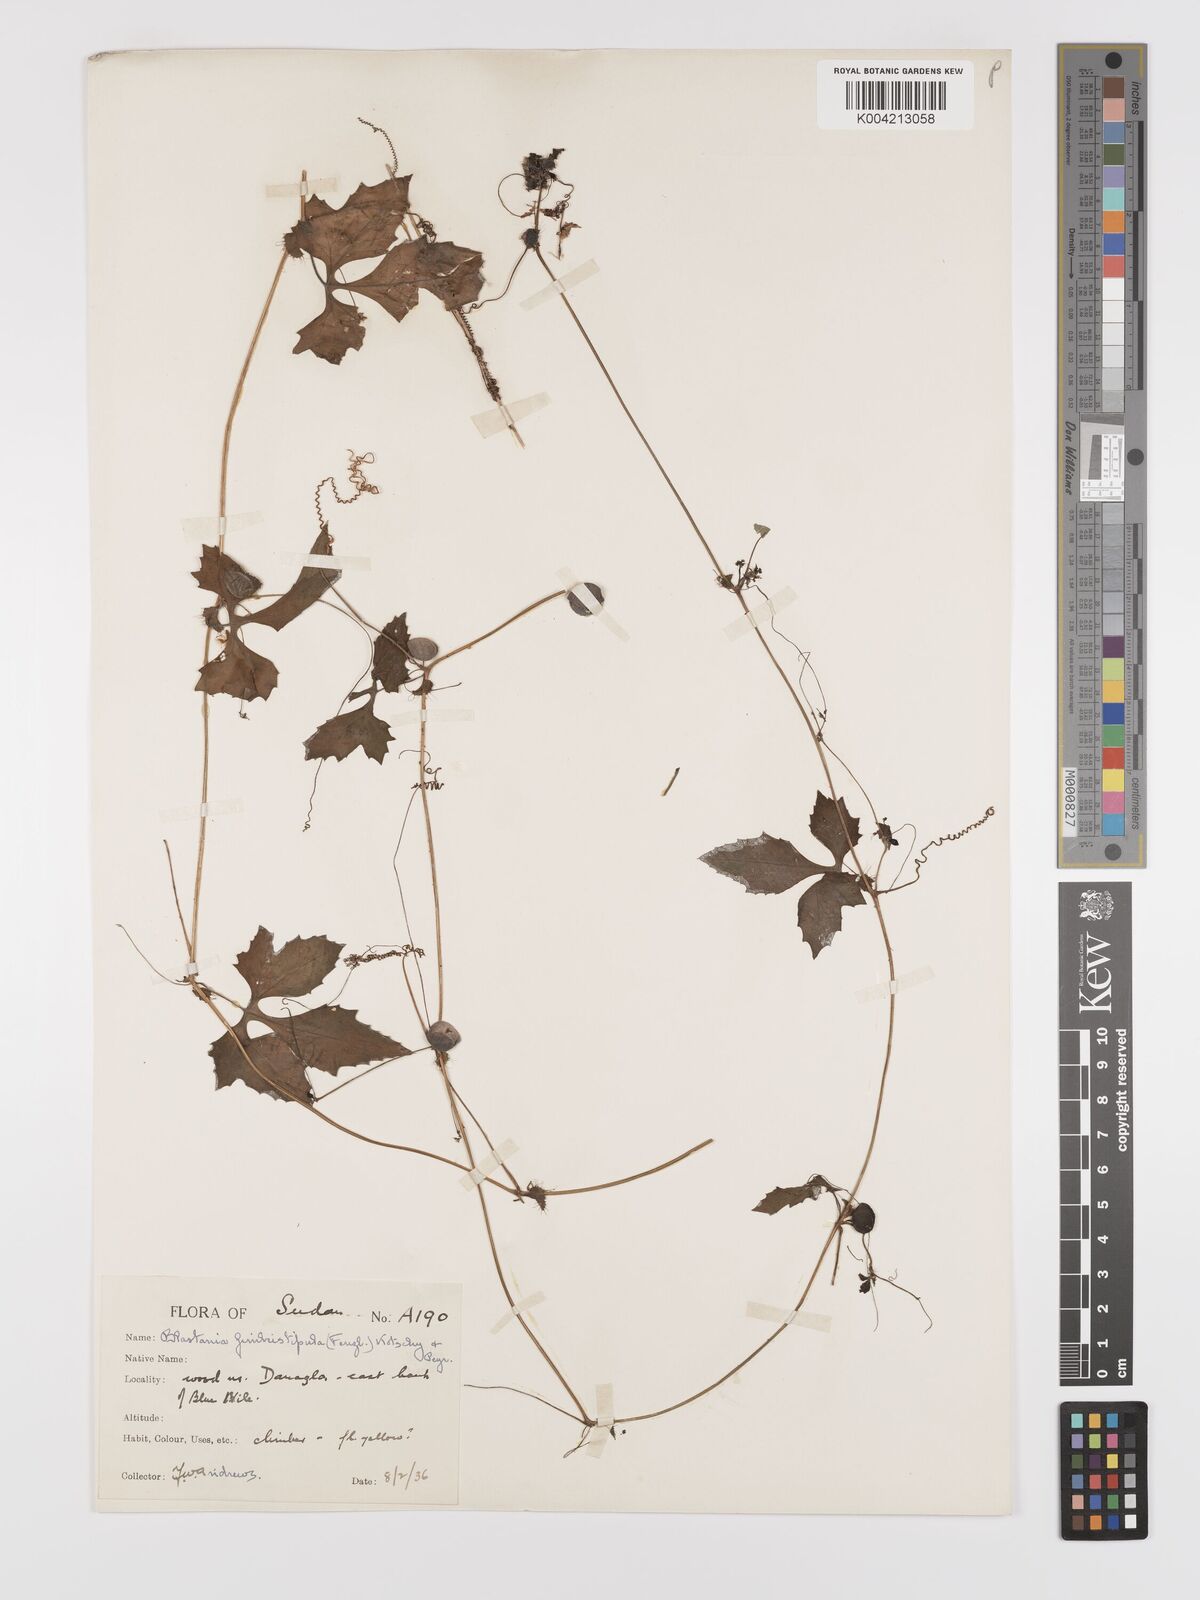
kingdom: Plantae
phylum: Tracheophyta
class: Magnoliopsida
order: Cucurbitales
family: Cucurbitaceae
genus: Blastania
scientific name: Blastania cerasiformis
